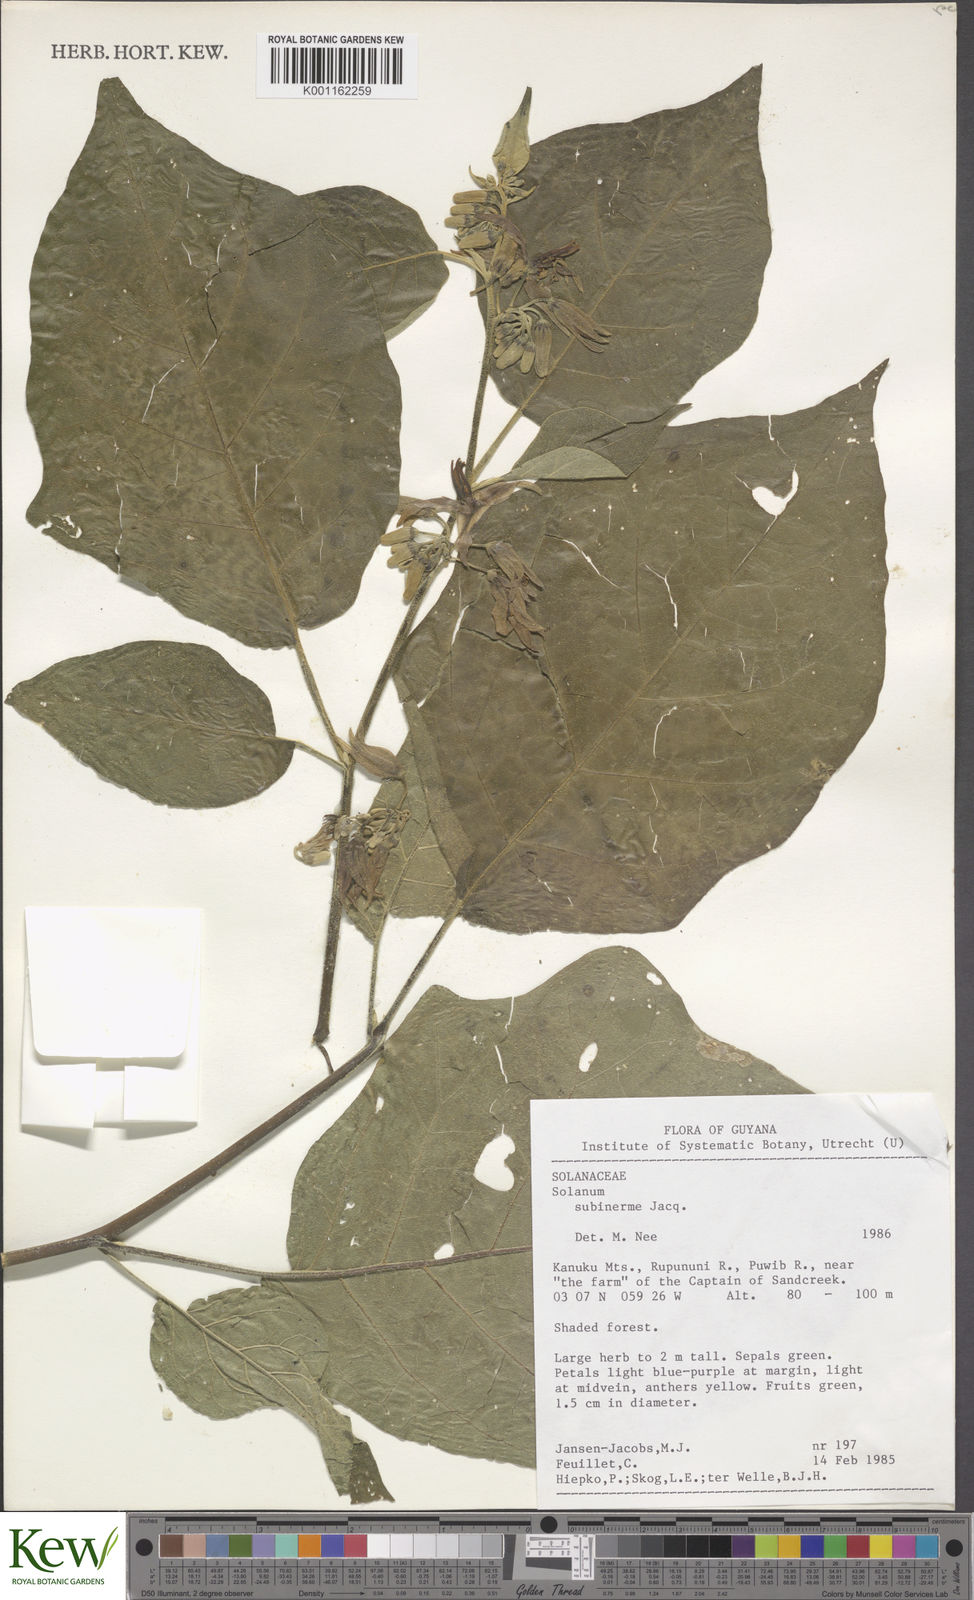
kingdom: Plantae
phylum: Tracheophyta
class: Magnoliopsida
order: Solanales
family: Solanaceae
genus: Solanum
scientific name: Solanum subinerme
